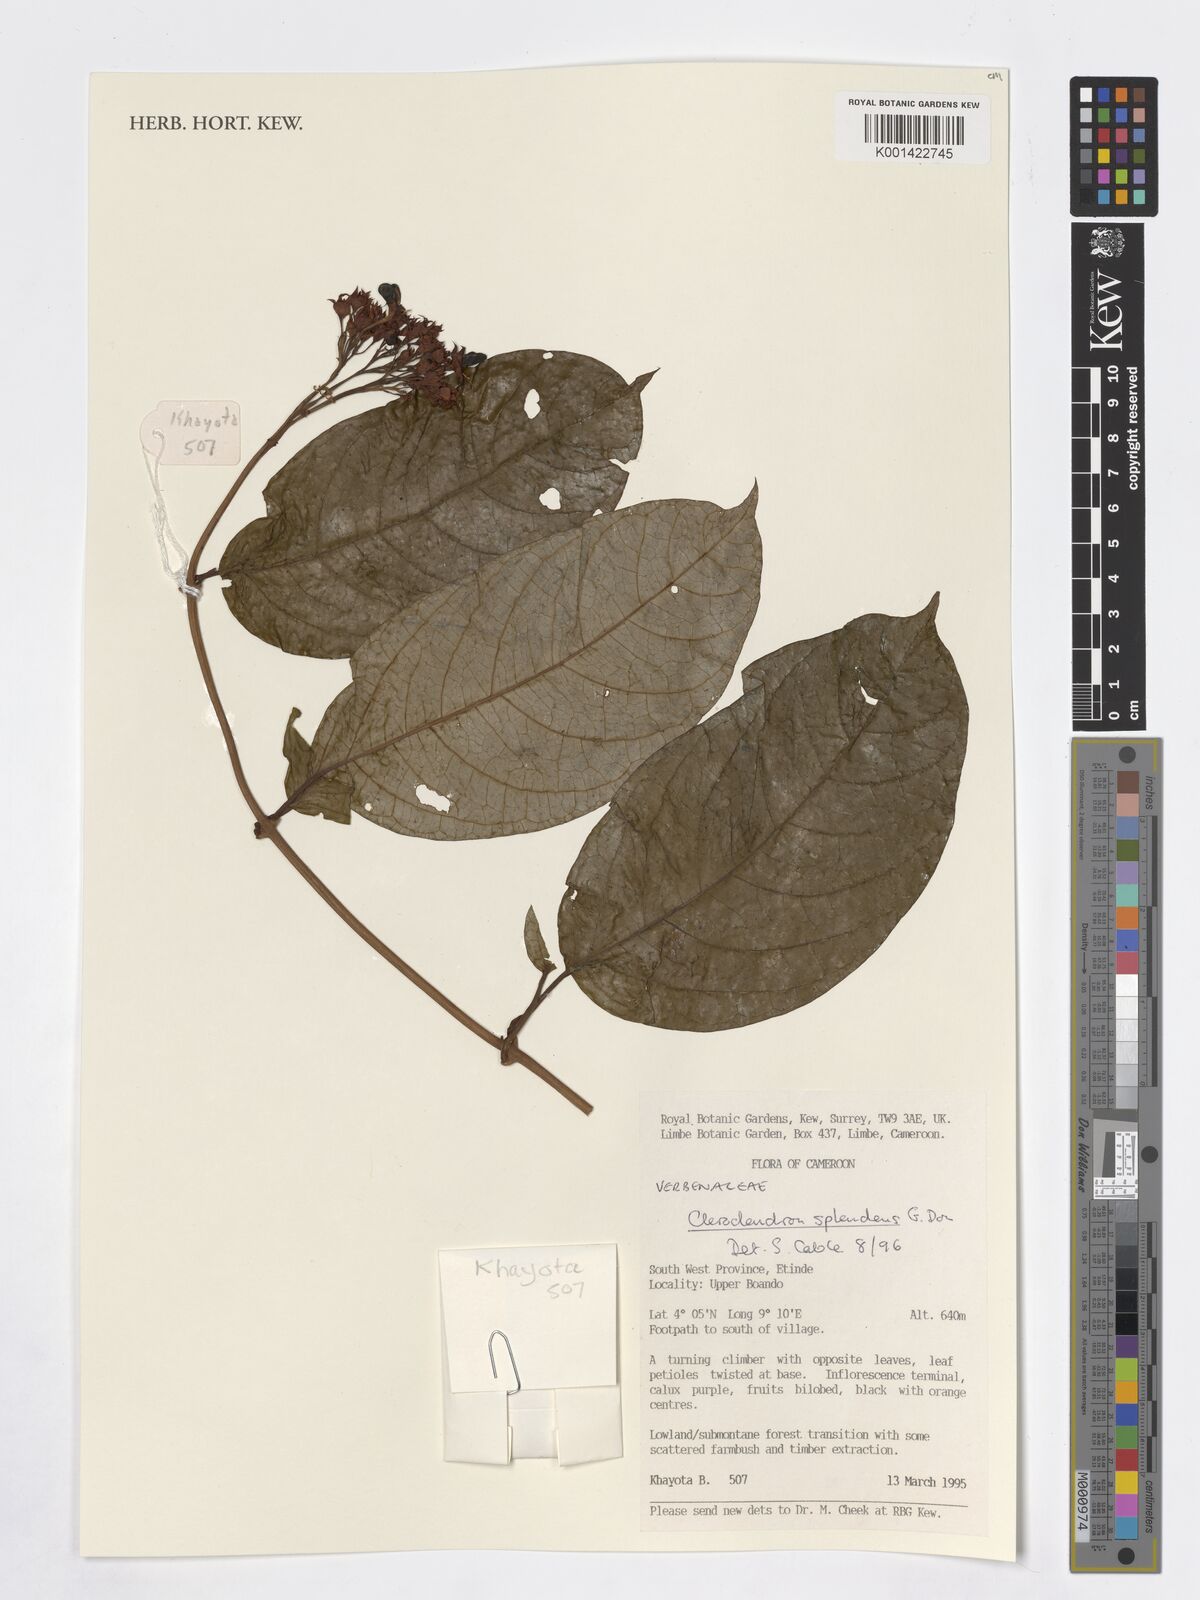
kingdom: Plantae
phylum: Tracheophyta
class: Magnoliopsida
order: Lamiales
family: Verbenaceae
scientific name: Verbenaceae
